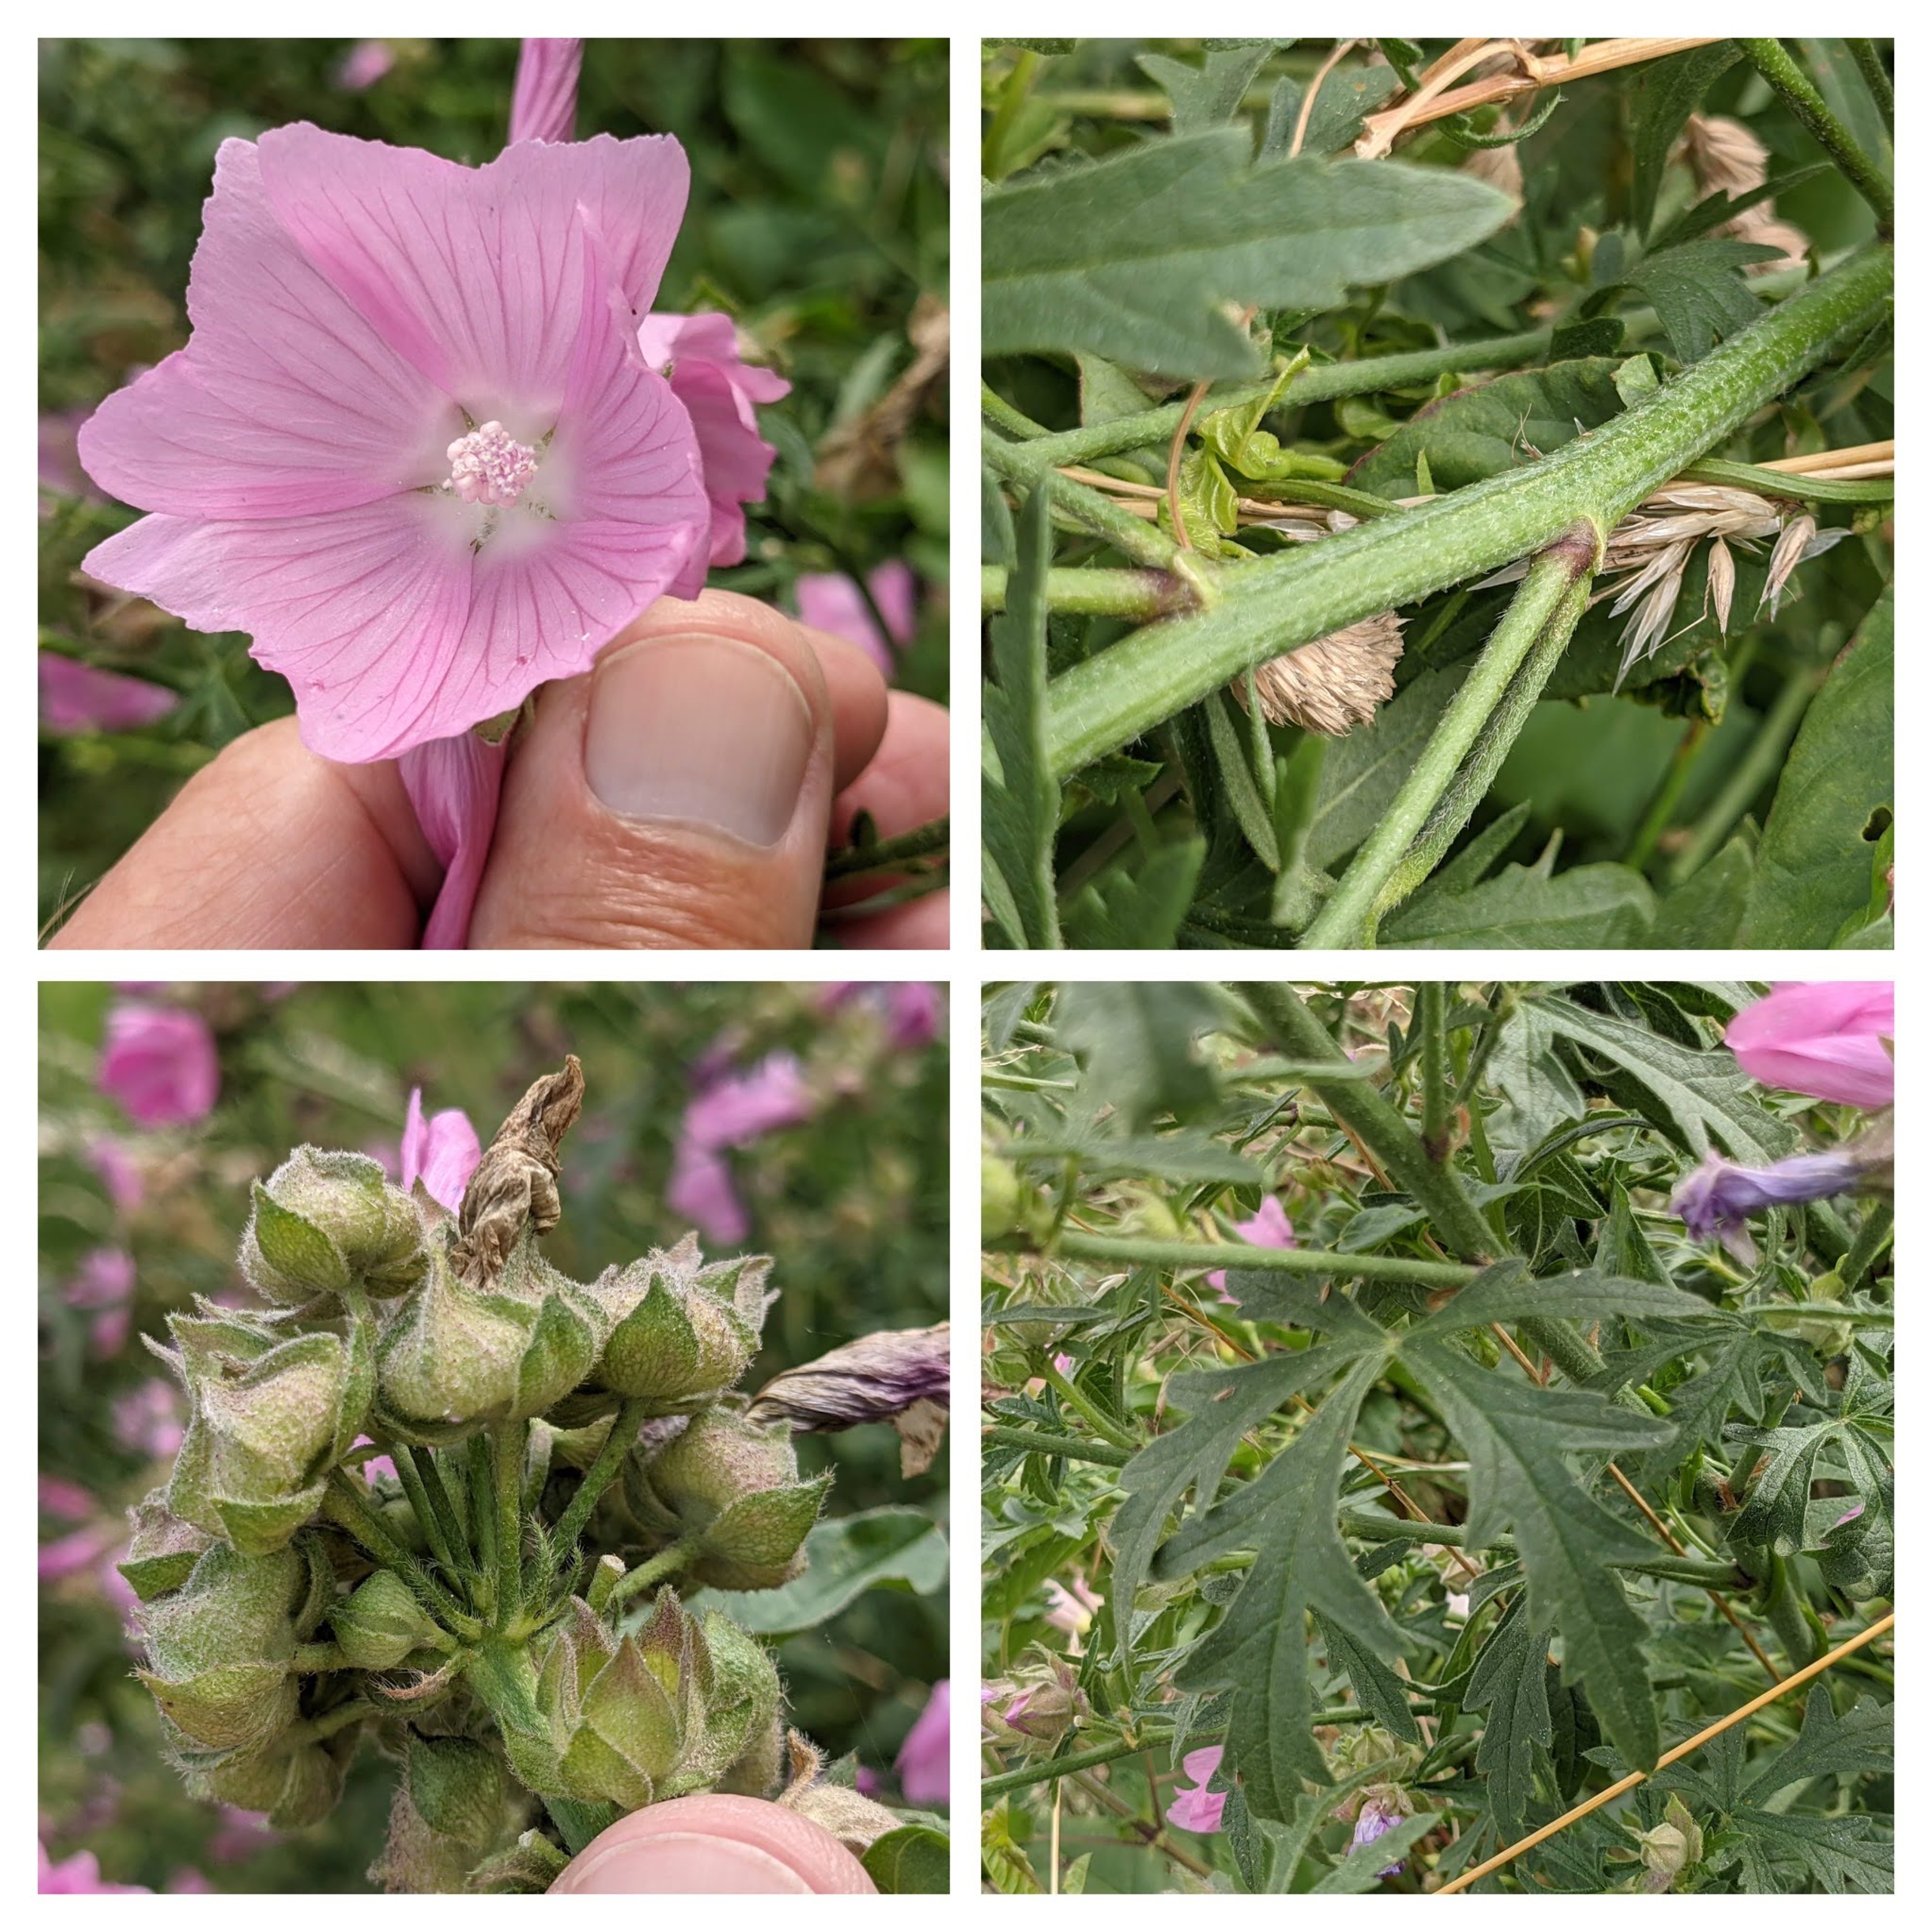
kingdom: Plantae
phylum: Tracheophyta
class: Magnoliopsida
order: Malvales
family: Malvaceae
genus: Malva
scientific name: Malva alcea
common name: Rosen-katost
